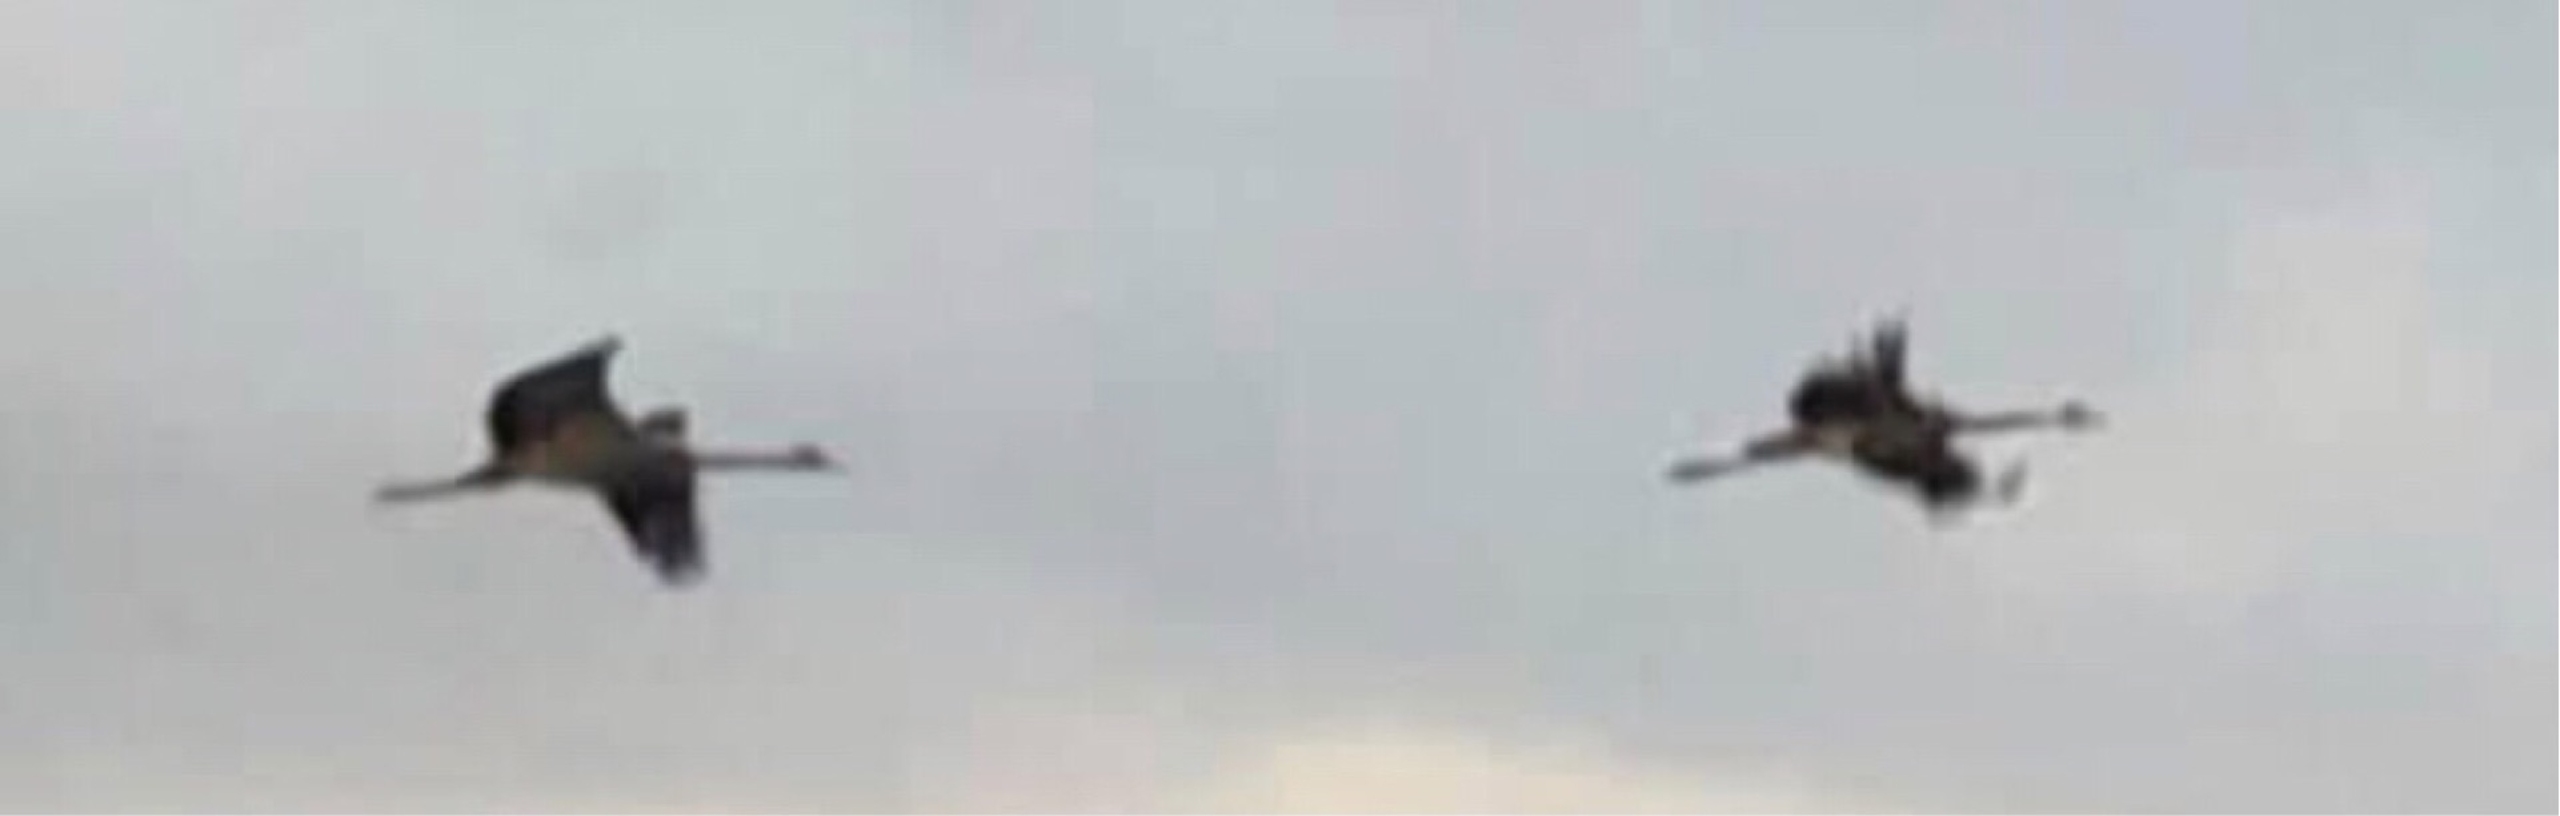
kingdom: Animalia
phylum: Chordata
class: Aves
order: Gruiformes
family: Gruidae
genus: Grus
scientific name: Grus grus
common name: Trane
